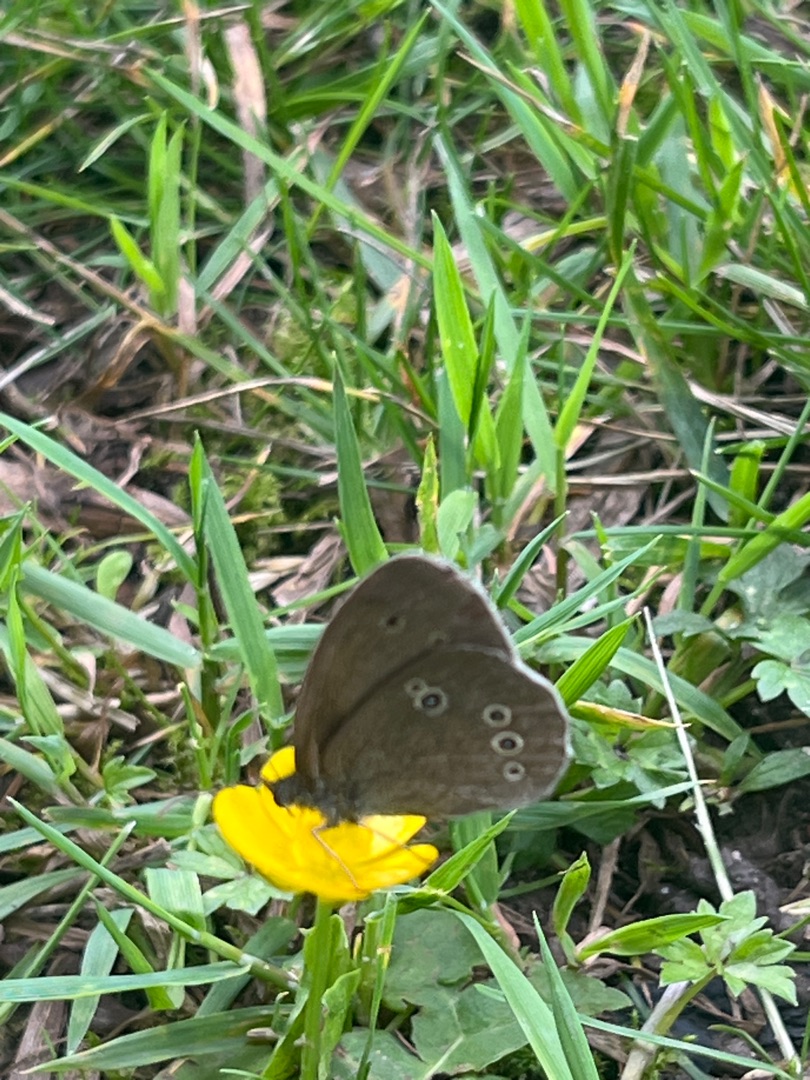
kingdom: Animalia
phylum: Arthropoda
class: Insecta
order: Lepidoptera
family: Nymphalidae
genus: Aphantopus
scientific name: Aphantopus hyperantus
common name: Engrandøje
